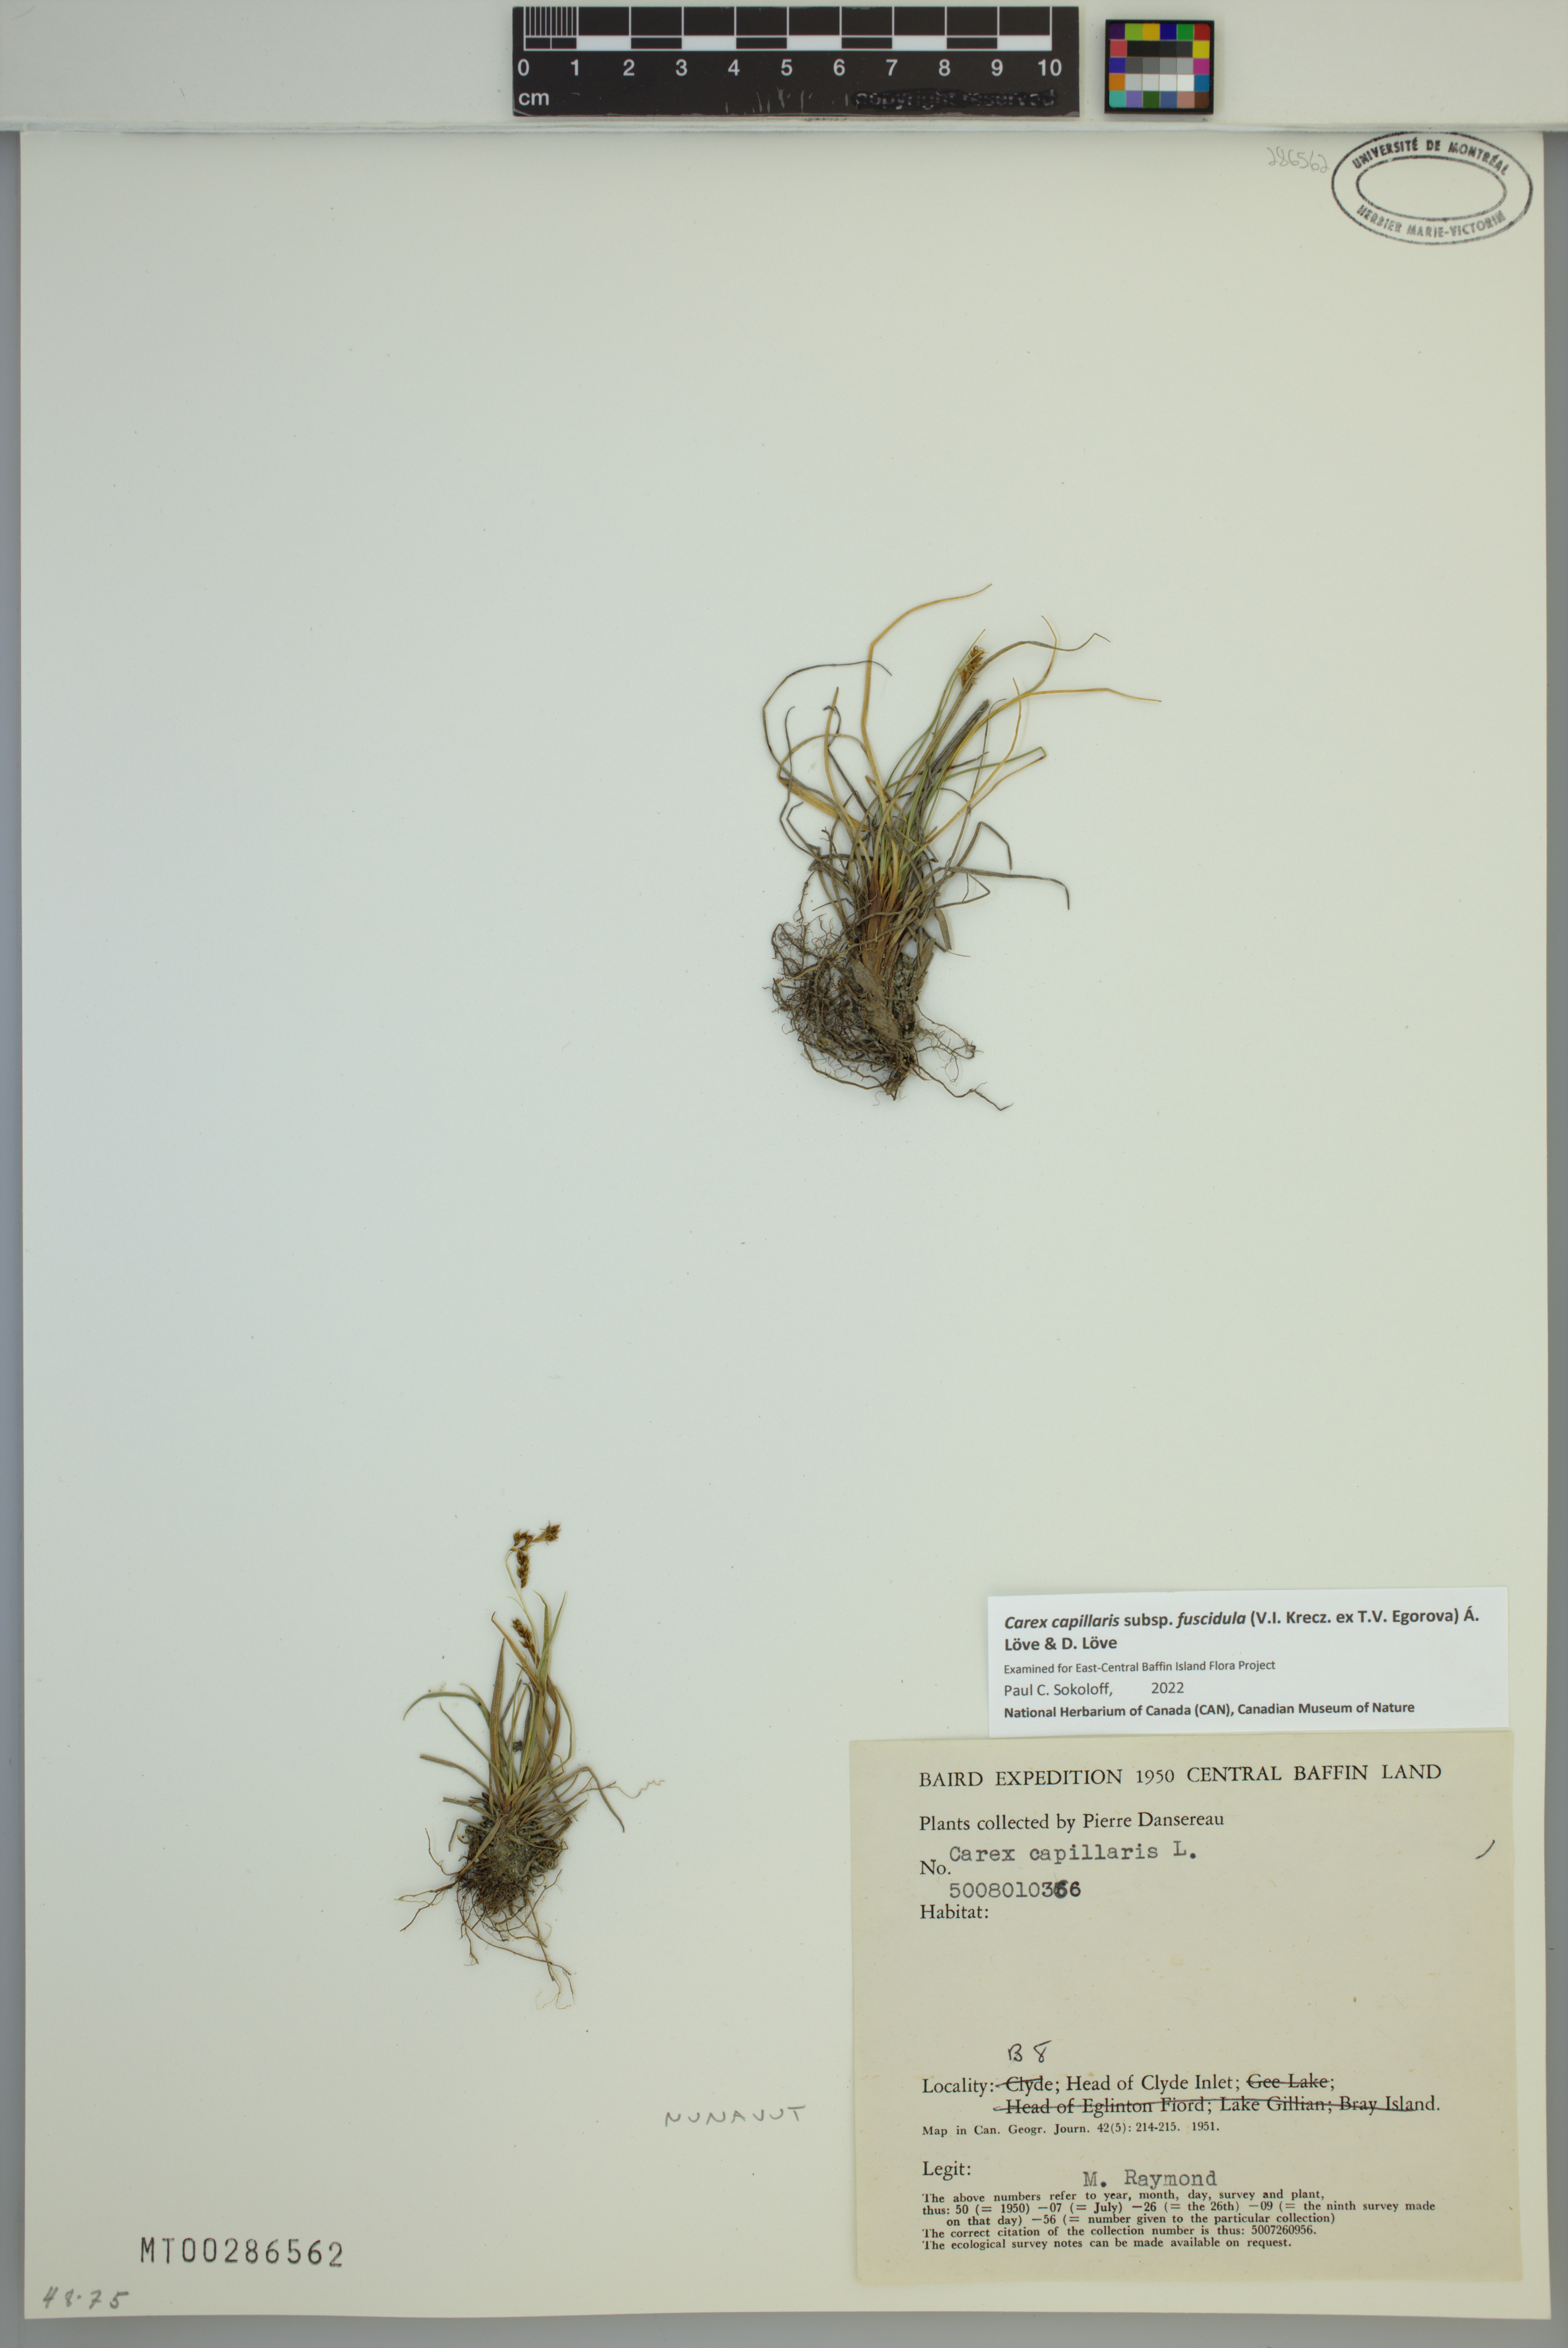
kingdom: Plantae
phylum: Tracheophyta
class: Liliopsida
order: Poales
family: Cyperaceae
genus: Carex
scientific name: Carex capillaris
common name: Hair sedge
